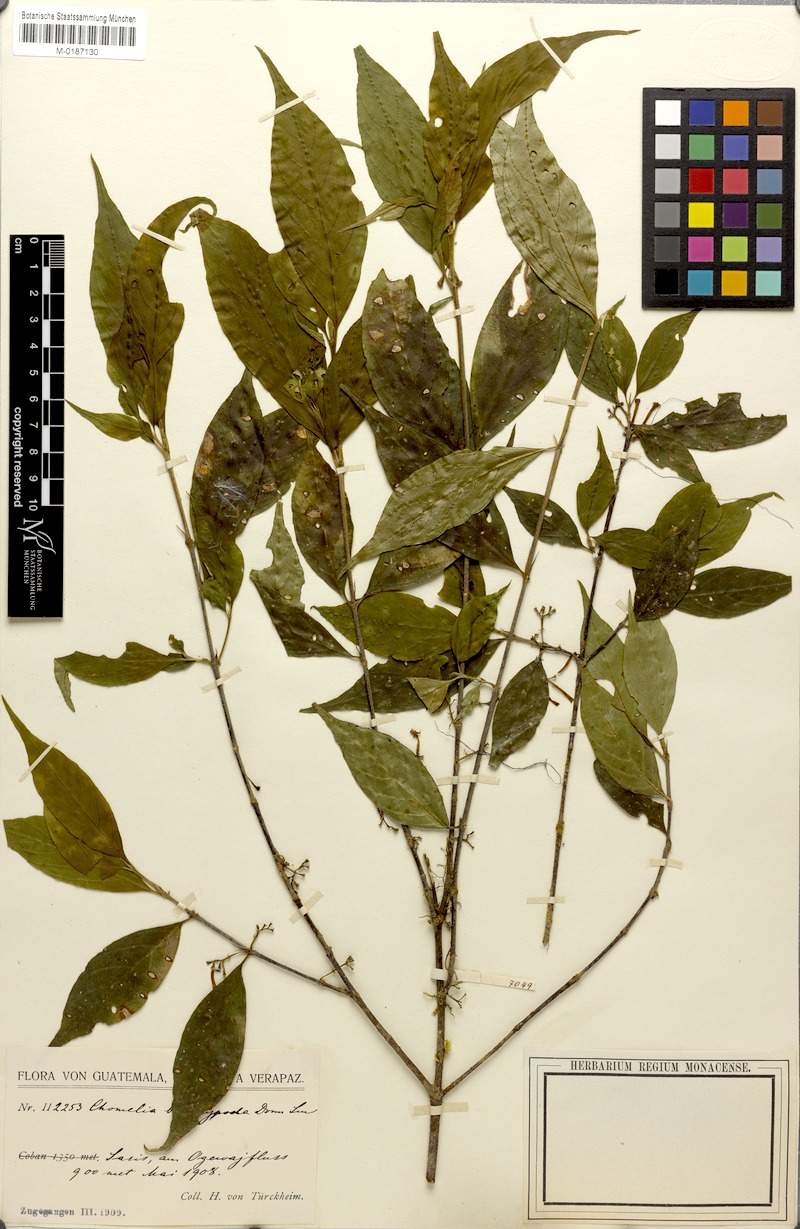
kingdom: Plantae
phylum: Tracheophyta
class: Magnoliopsida
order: Gentianales
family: Rubiaceae
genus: Chomelia
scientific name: Chomelia brachypoda
